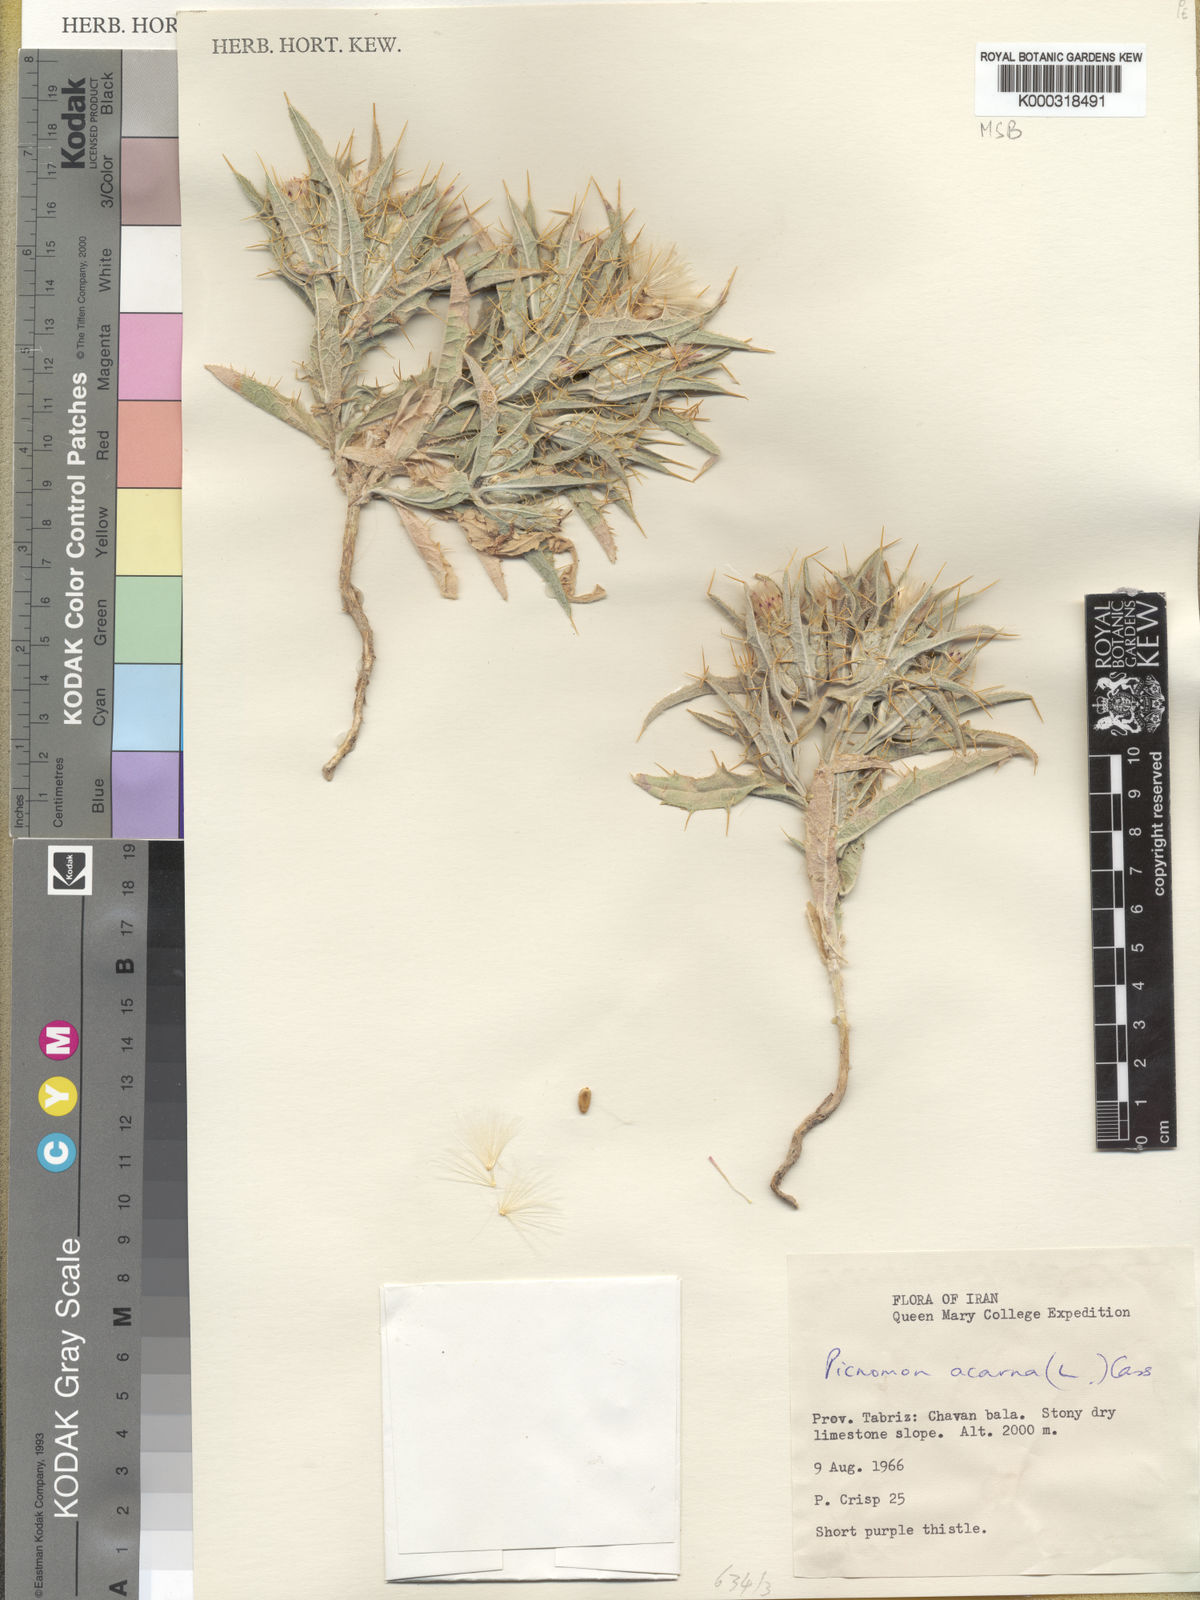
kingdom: Plantae
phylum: Tracheophyta
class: Magnoliopsida
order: Asterales
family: Asteraceae
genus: Picnomon
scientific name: Picnomon acarna
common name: Soldier thistle
